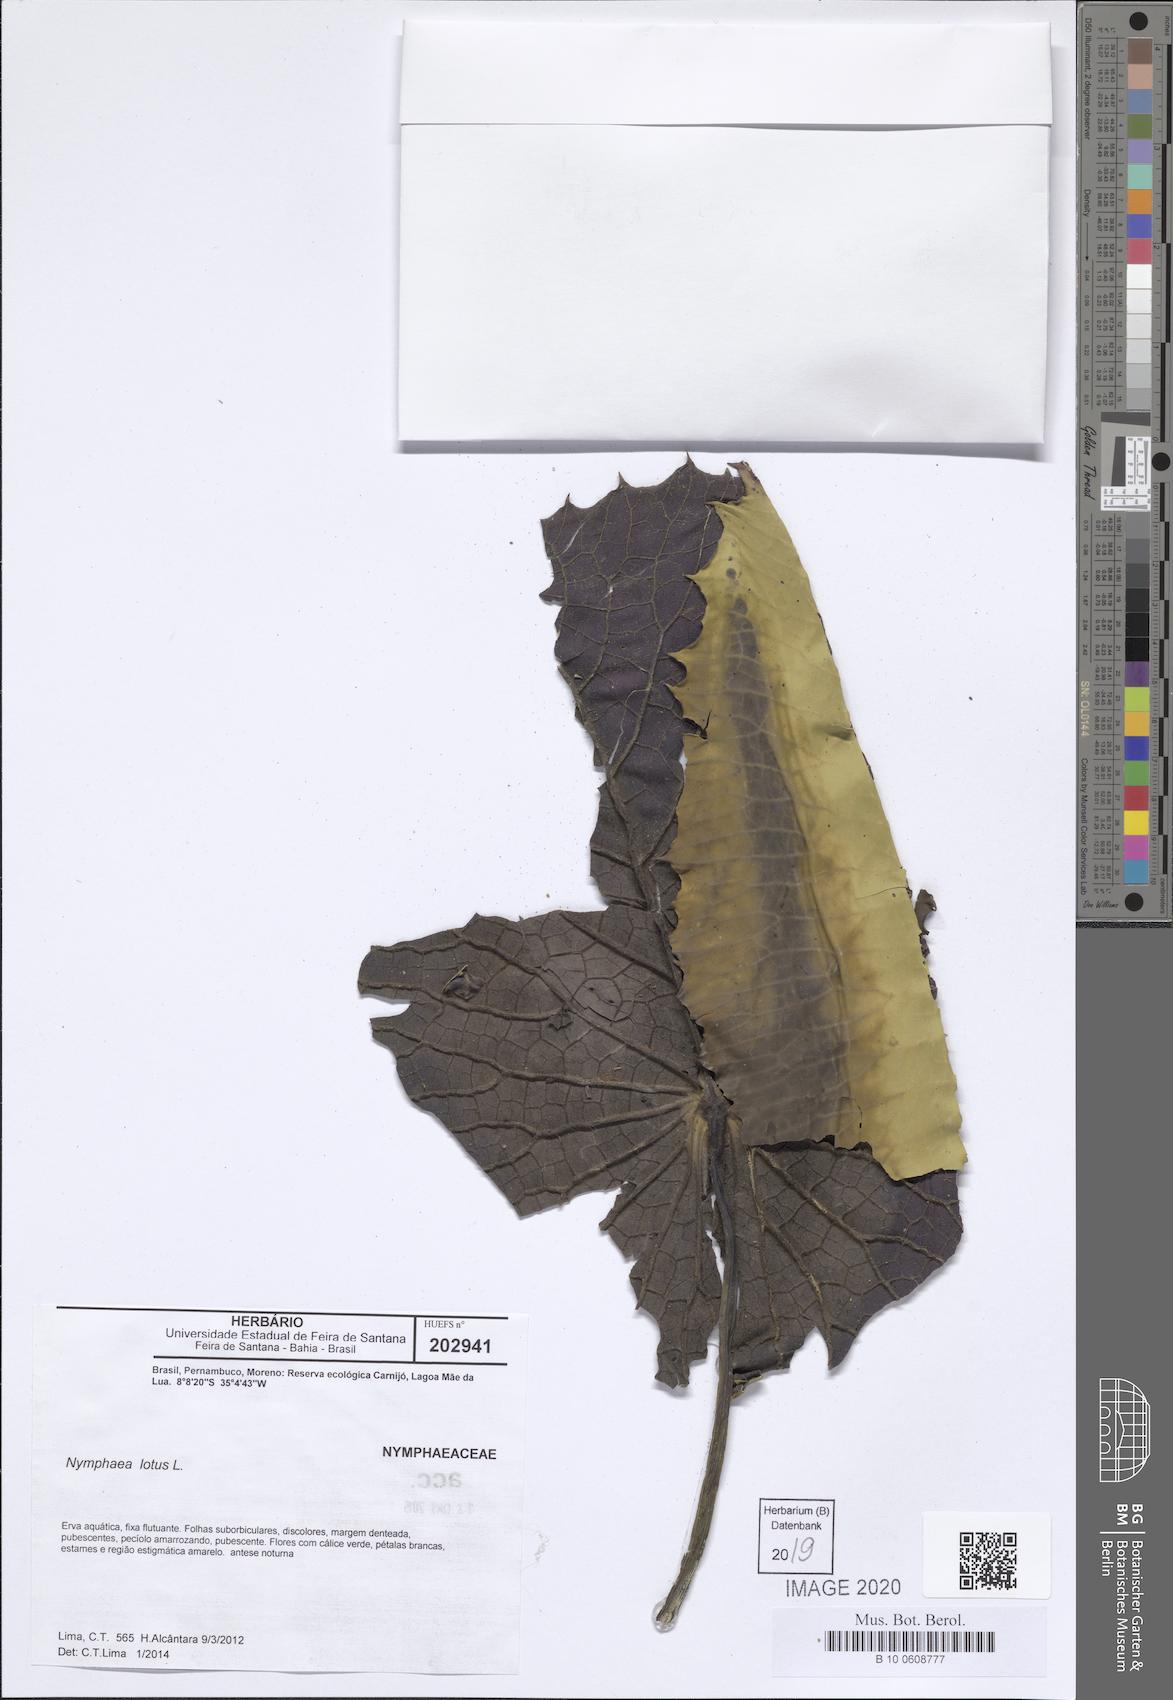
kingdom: Plantae
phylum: Tracheophyta
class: Magnoliopsida
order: Nymphaeales
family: Nymphaeaceae
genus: Nymphaea
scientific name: Nymphaea lotus
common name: White egyptian lotus
